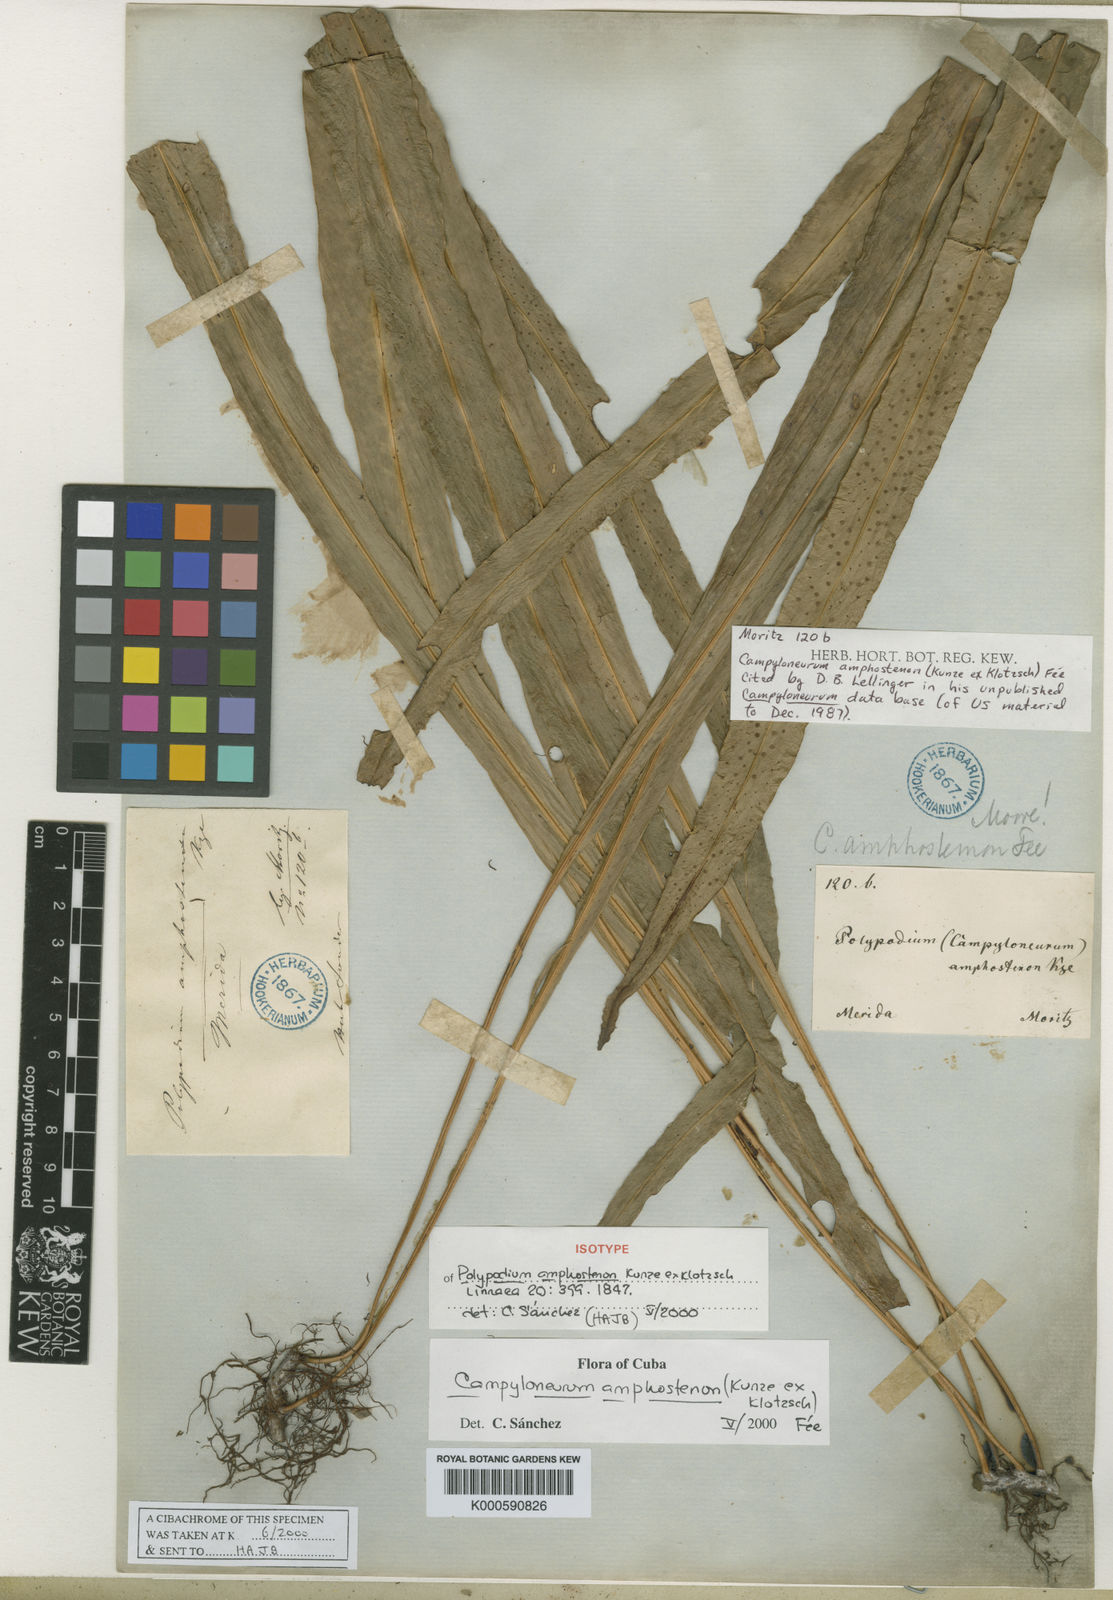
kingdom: Plantae
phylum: Tracheophyta
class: Polypodiopsida
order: Polypodiales
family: Polypodiaceae
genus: Campyloneurum
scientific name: Campyloneurum
